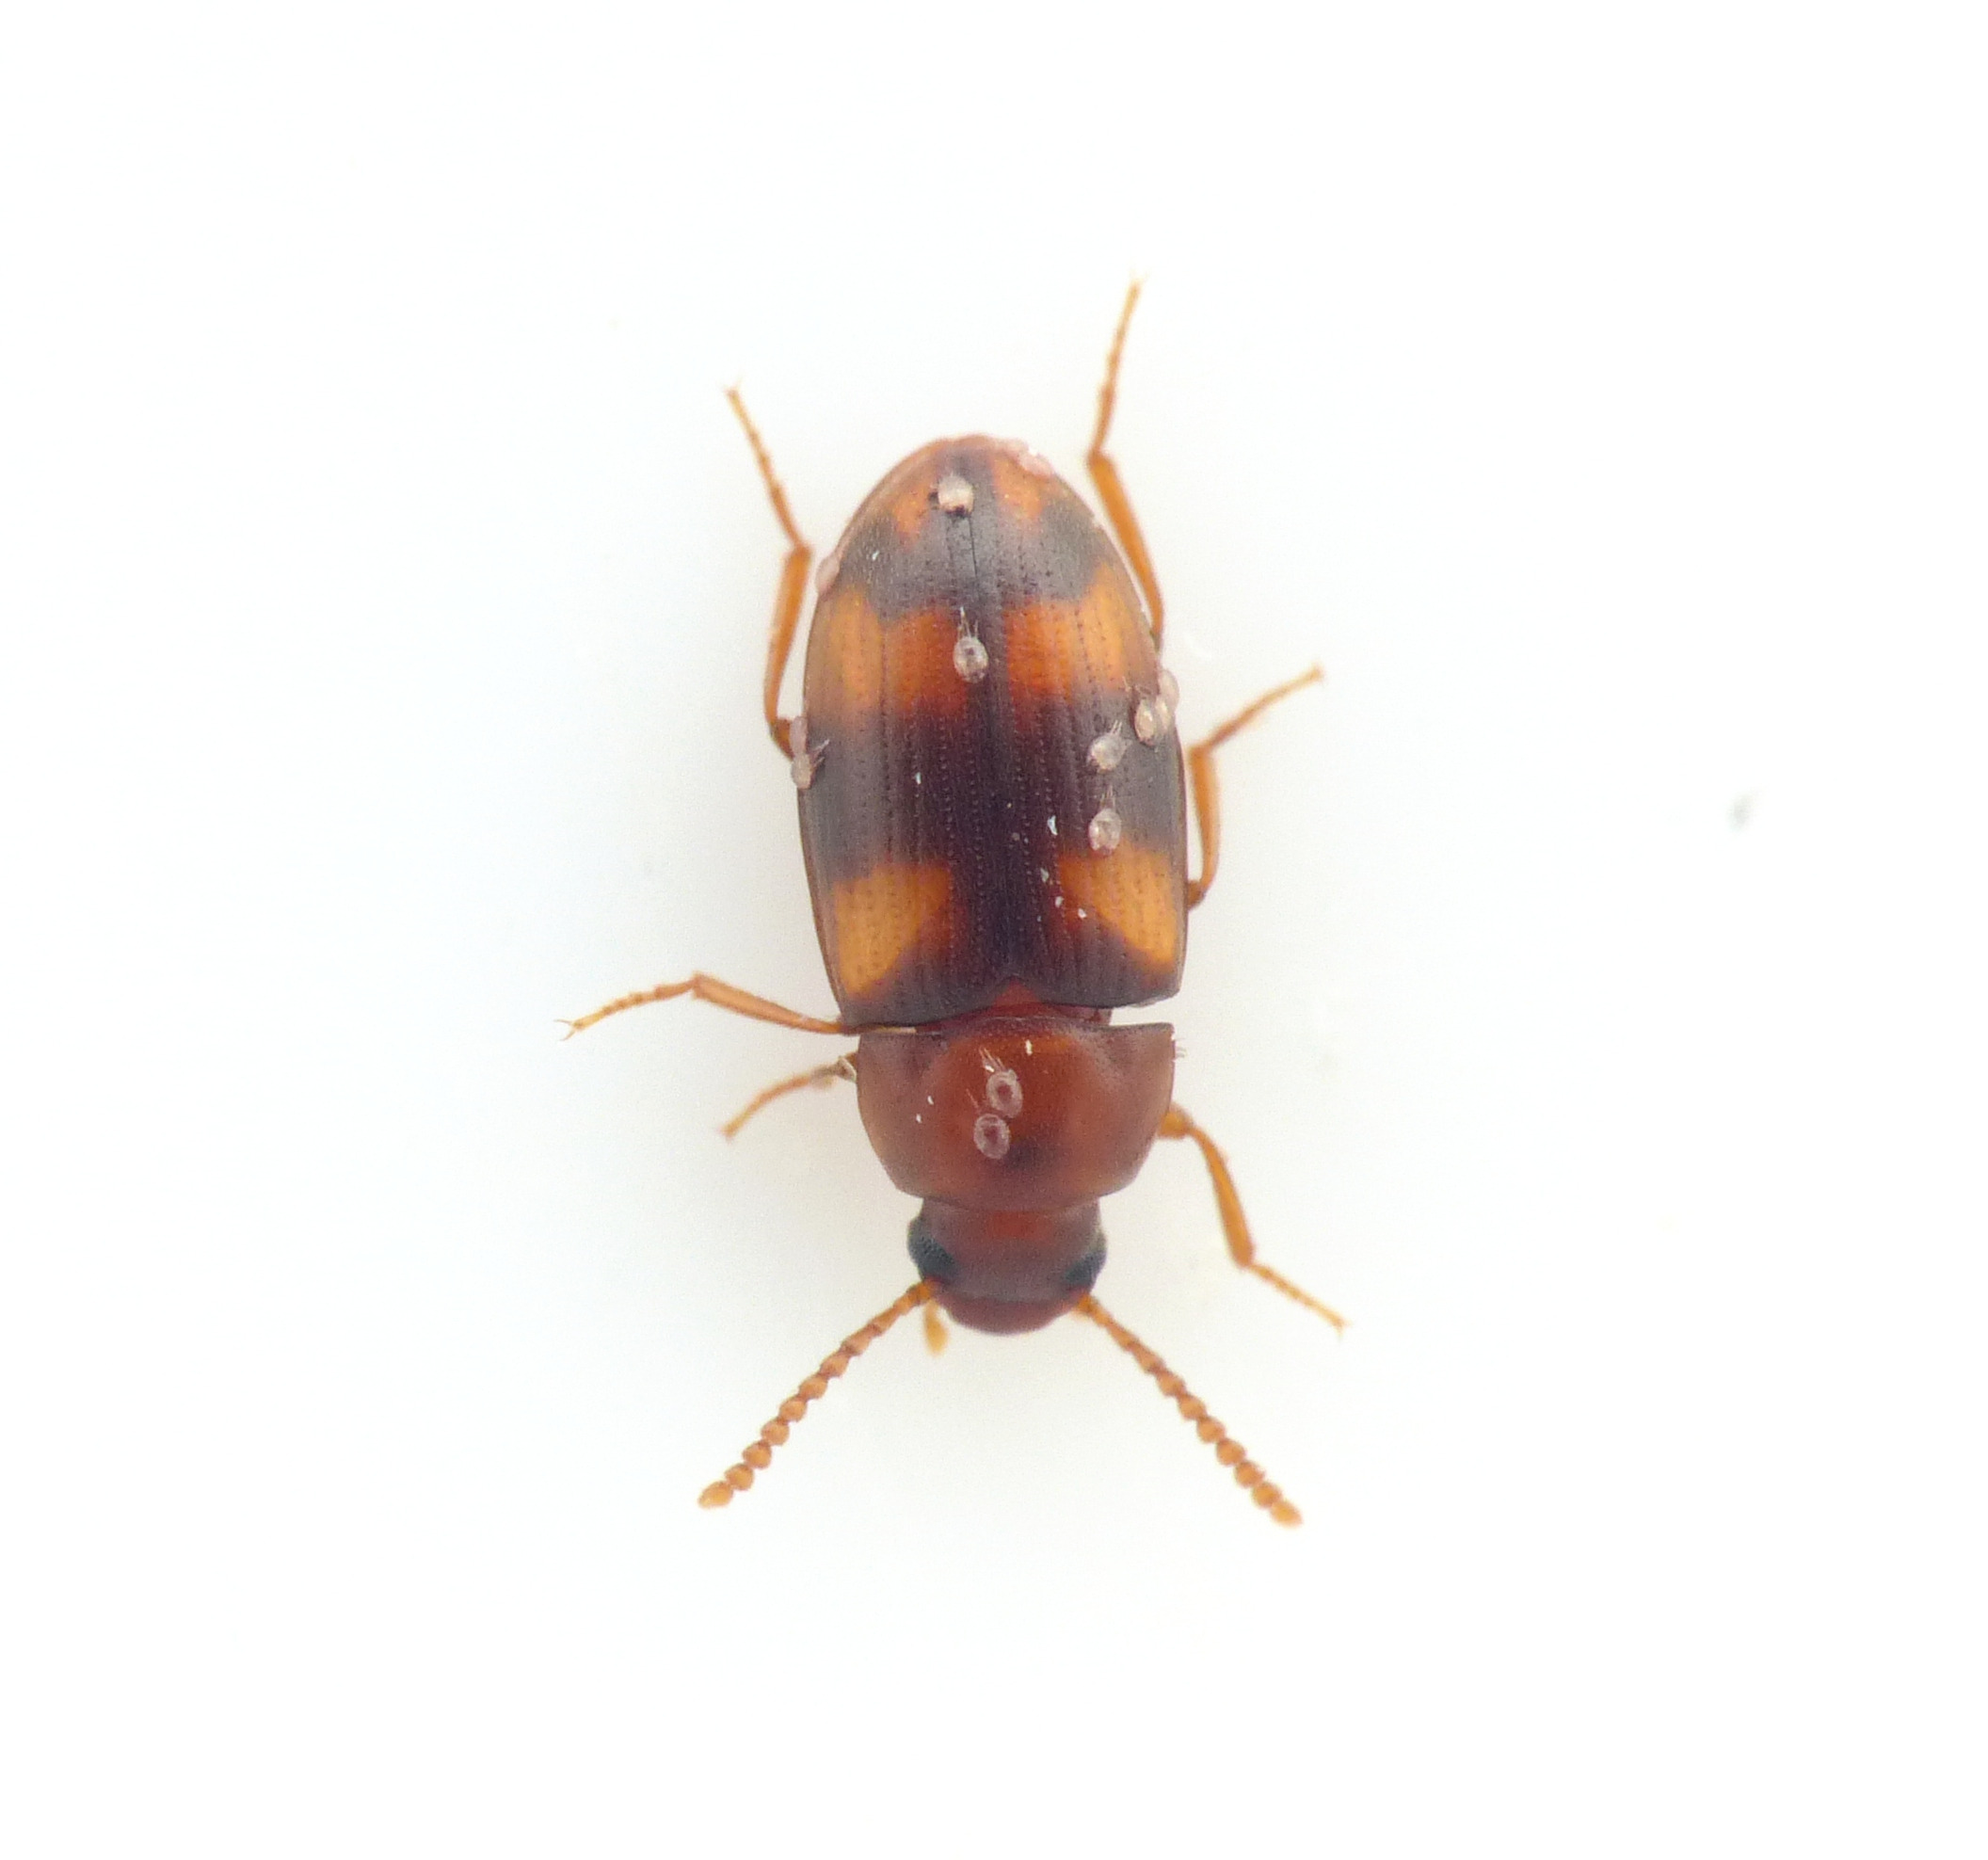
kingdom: Animalia
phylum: Arthropoda
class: Insecta
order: Coleoptera
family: Tenebrionidae
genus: Alphitophagus
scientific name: Alphitophagus bifasciatus
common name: Kompostskyggebille
